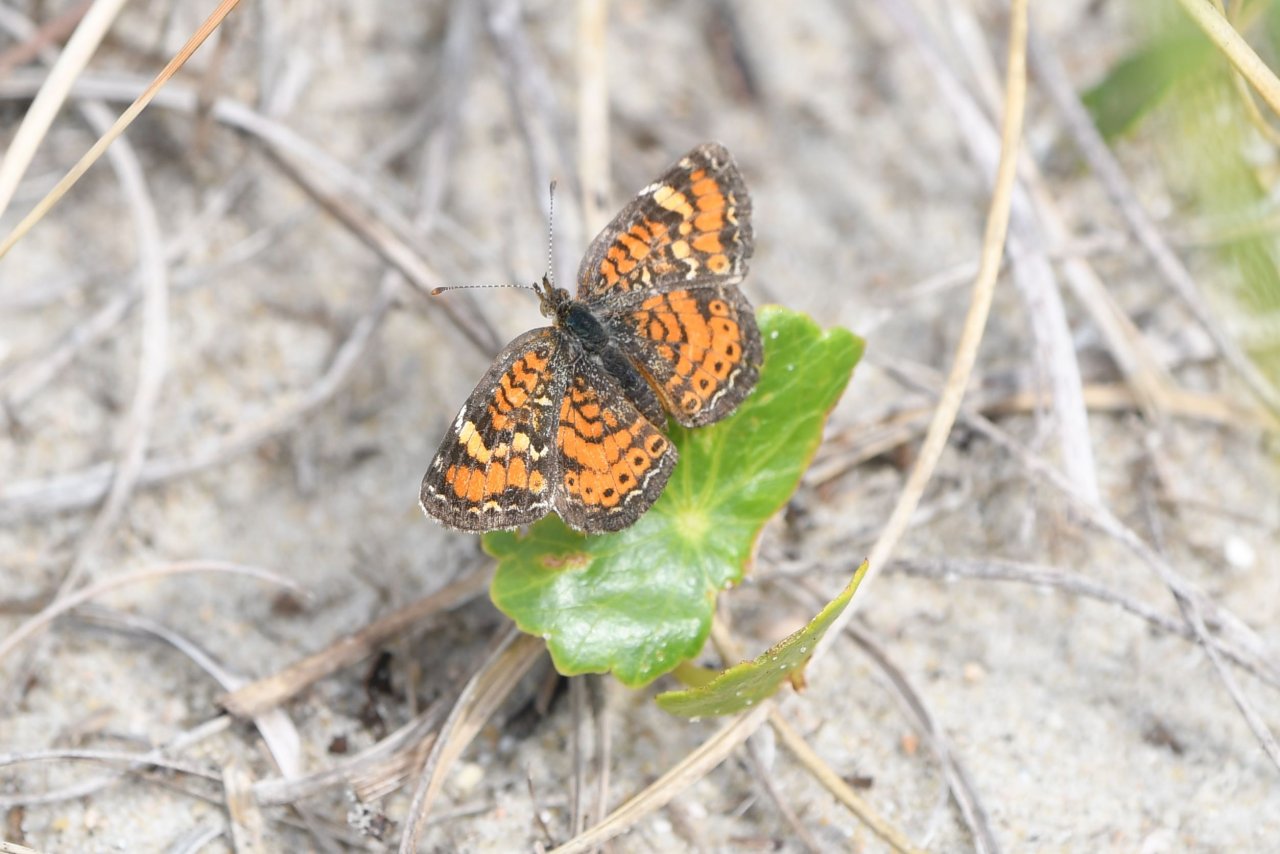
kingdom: Animalia
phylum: Arthropoda
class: Insecta
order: Lepidoptera
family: Nymphalidae
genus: Phyciodes
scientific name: Phyciodes phaon
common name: Phaon Crescent
